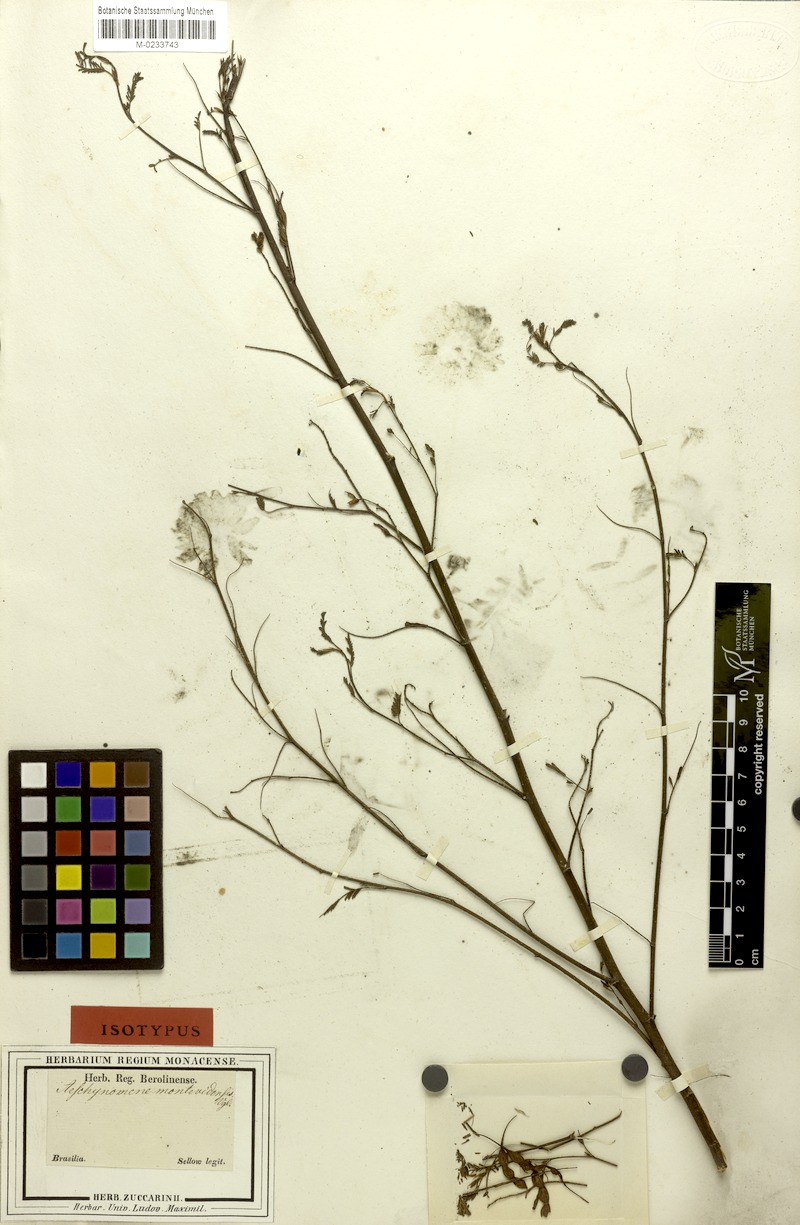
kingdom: Plantae
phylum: Tracheophyta
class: Magnoliopsida
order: Fabales
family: Fabaceae
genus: Aeschynomene
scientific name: Aeschynomene montevidensis
